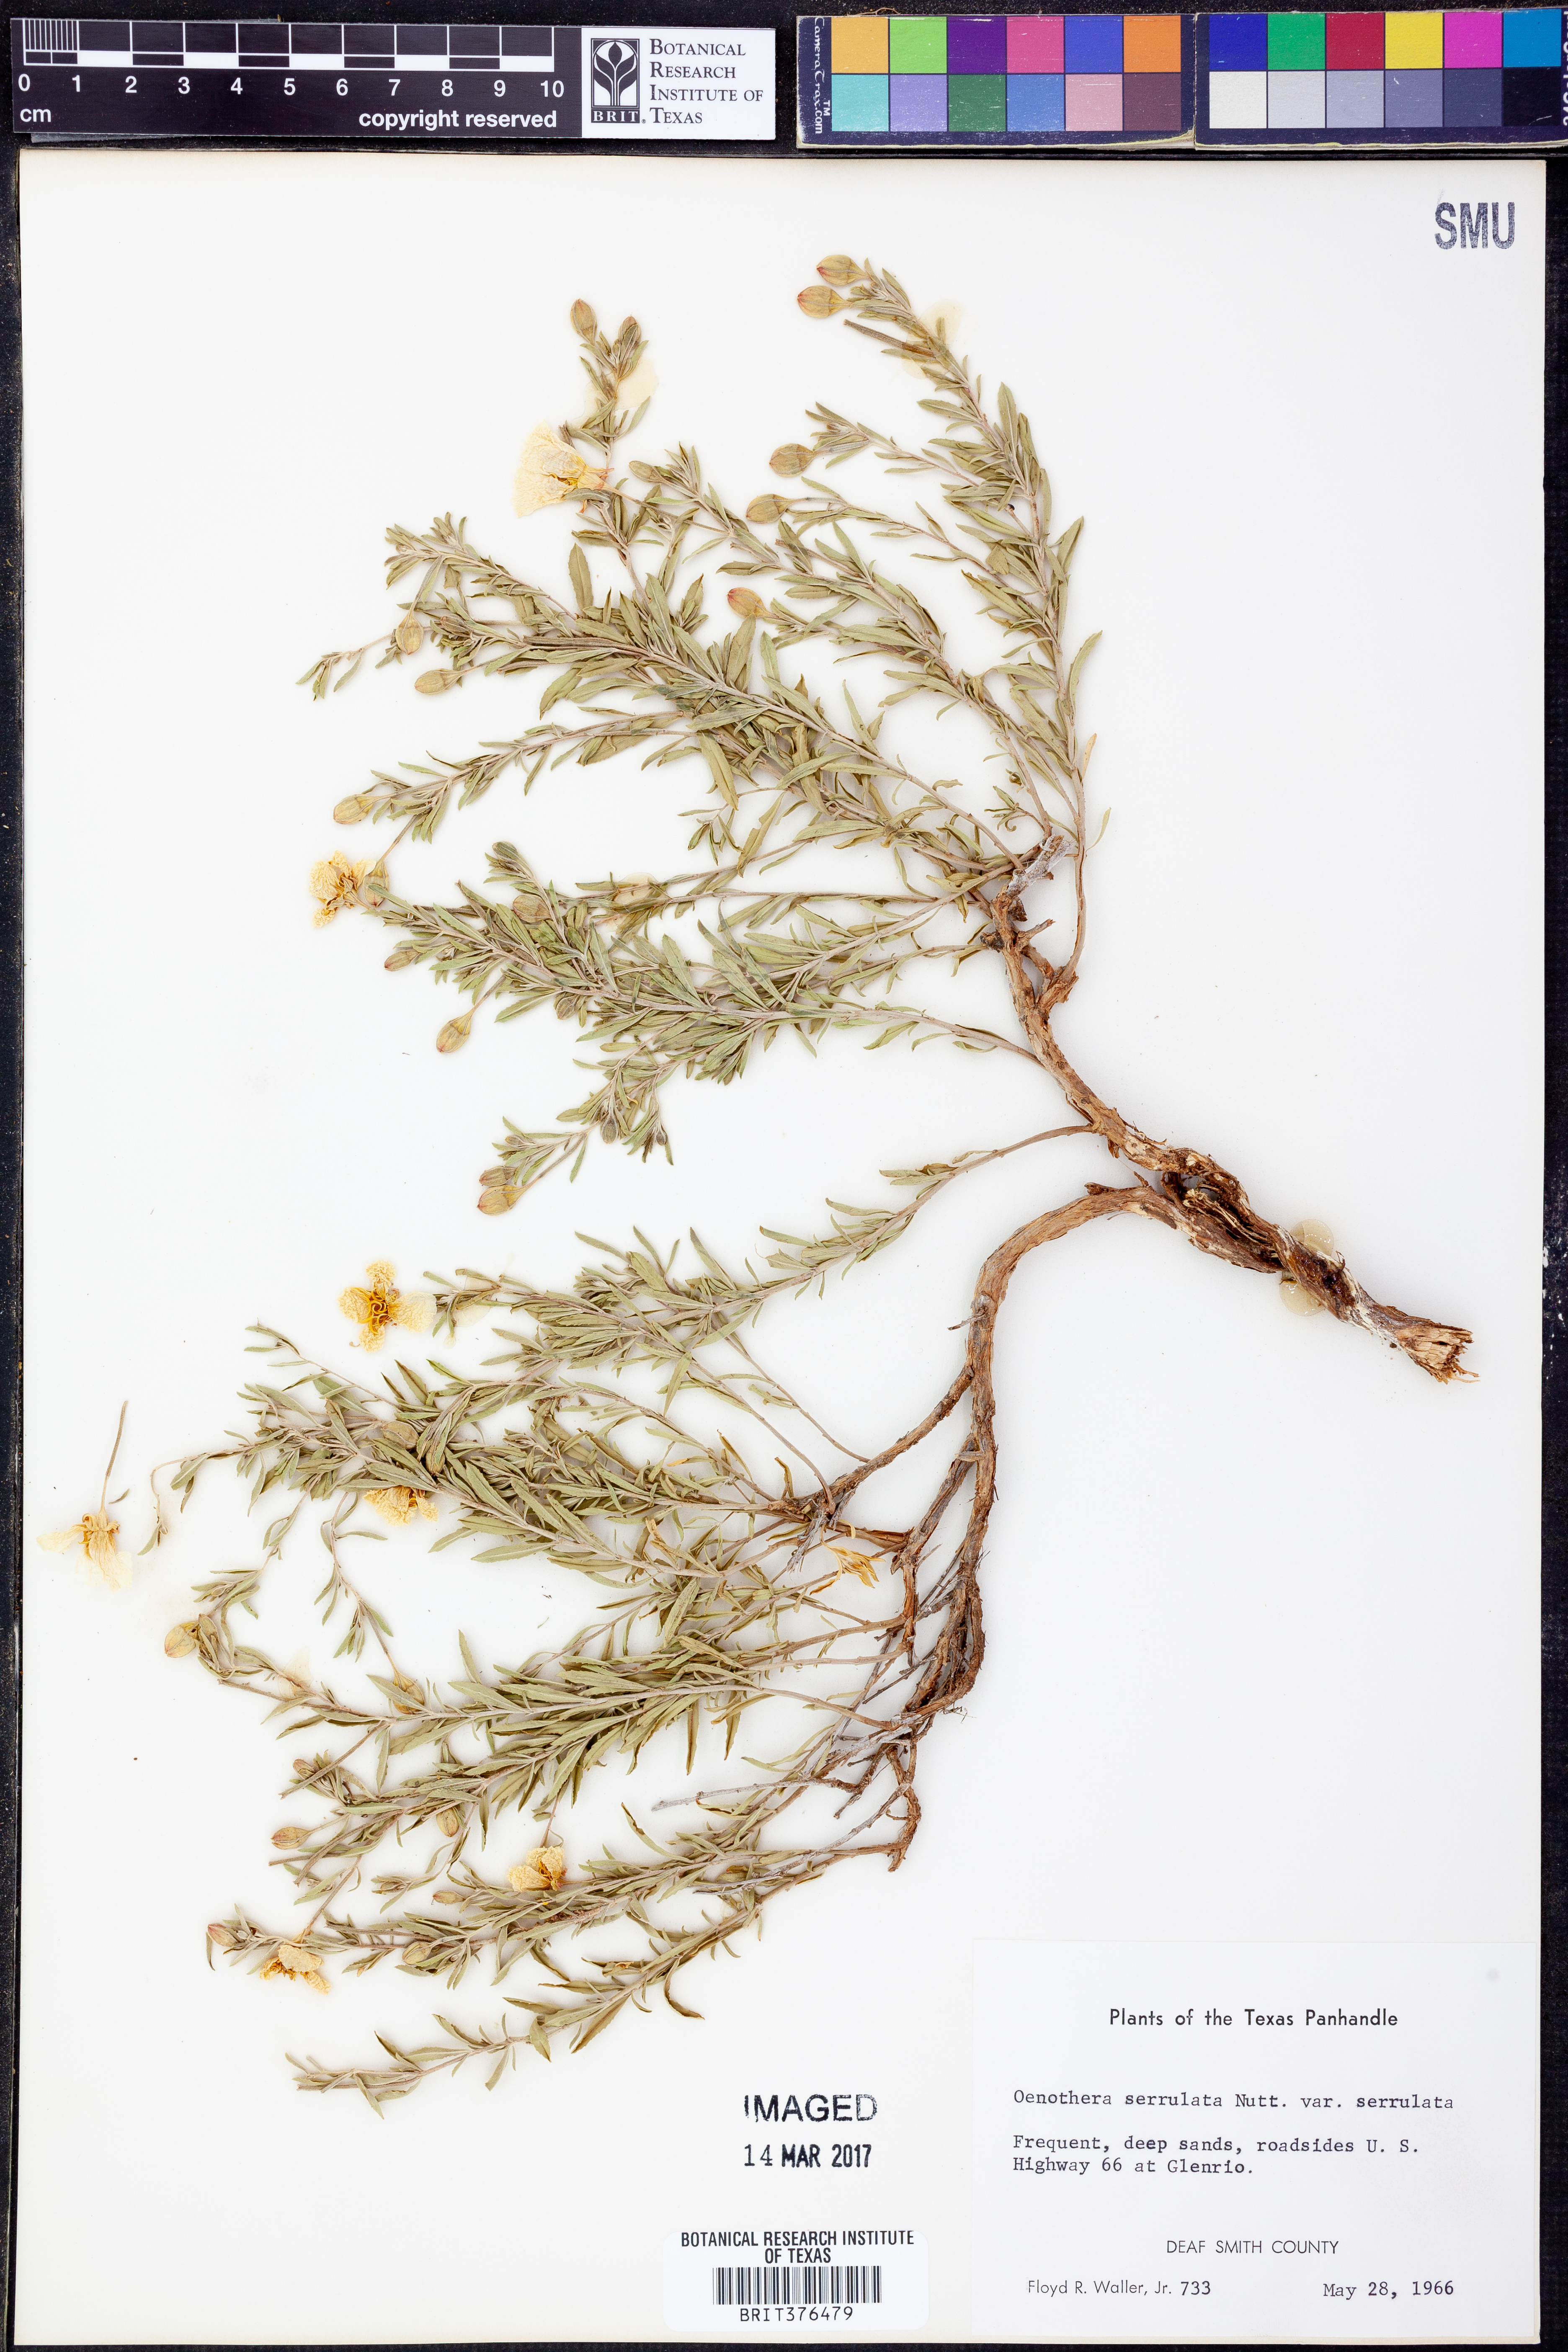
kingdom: Plantae
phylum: Tracheophyta
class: Magnoliopsida
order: Myrtales
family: Onagraceae
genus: Oenothera
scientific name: Oenothera serrulata
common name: Half-shrub calylophus
